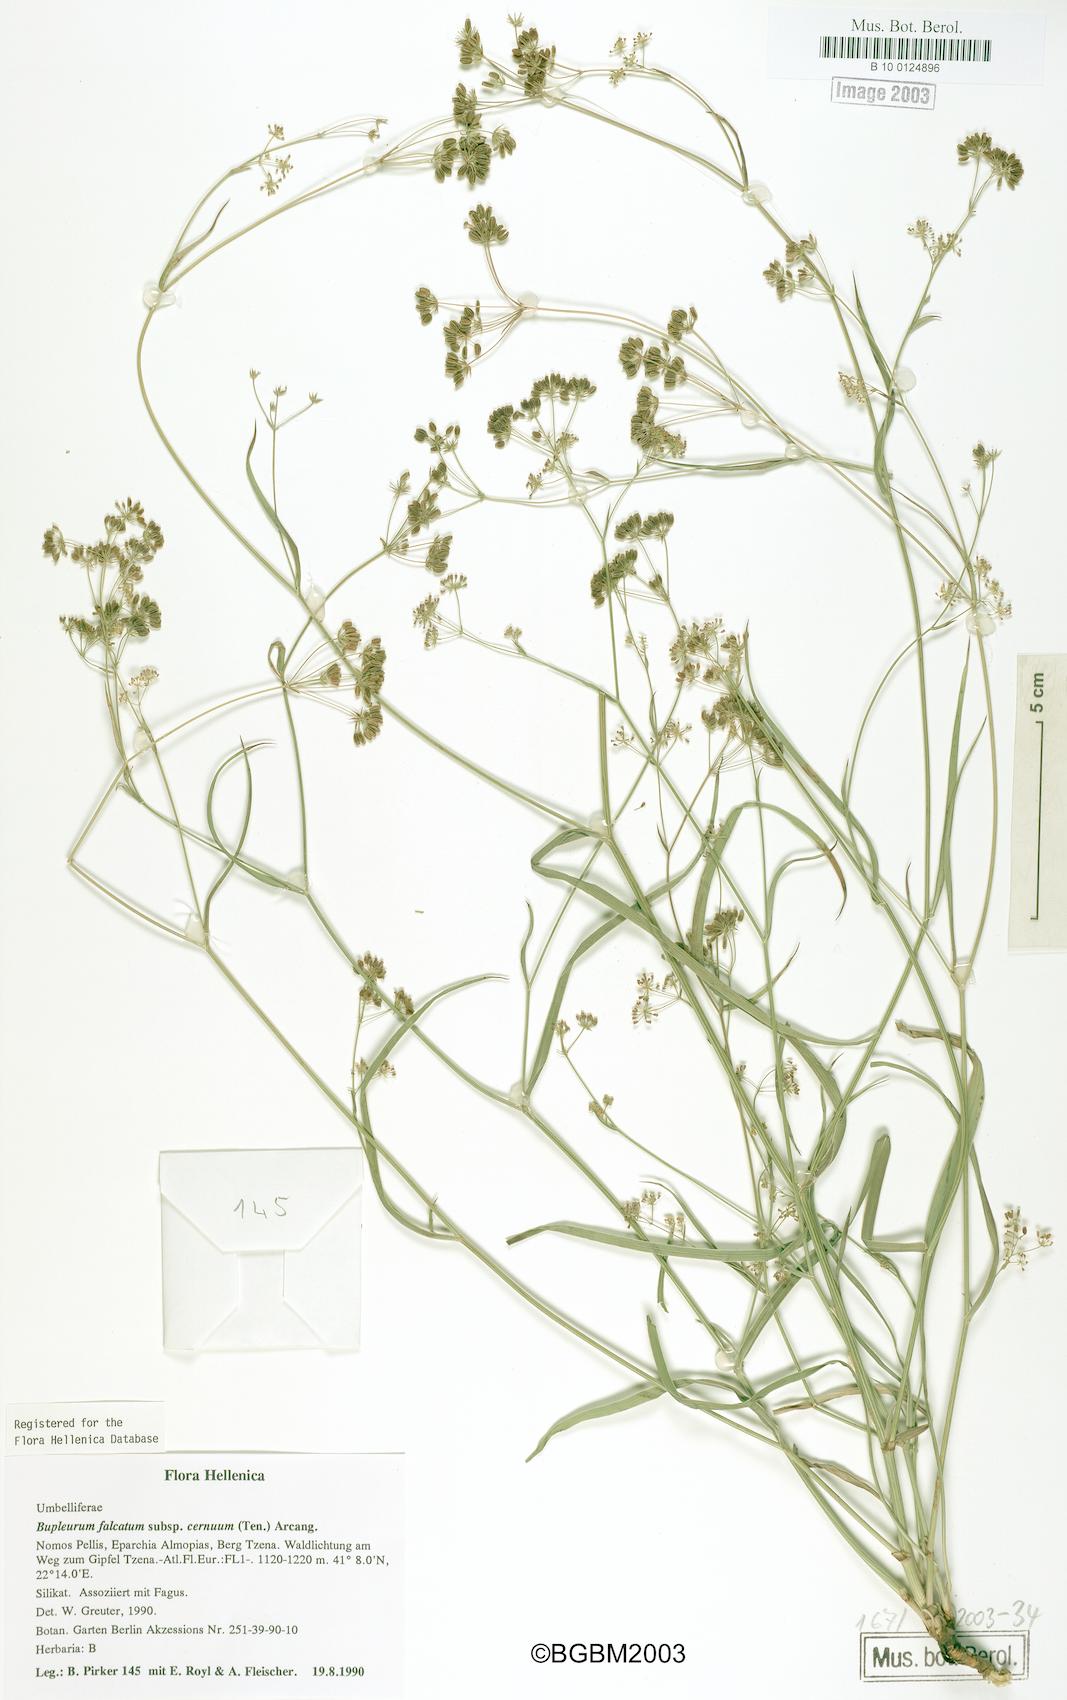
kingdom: Plantae
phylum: Tracheophyta
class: Magnoliopsida
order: Apiales
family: Apiaceae
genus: Bupleurum
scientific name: Bupleurum falcatum
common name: Sickle-leaved hare's-ear
